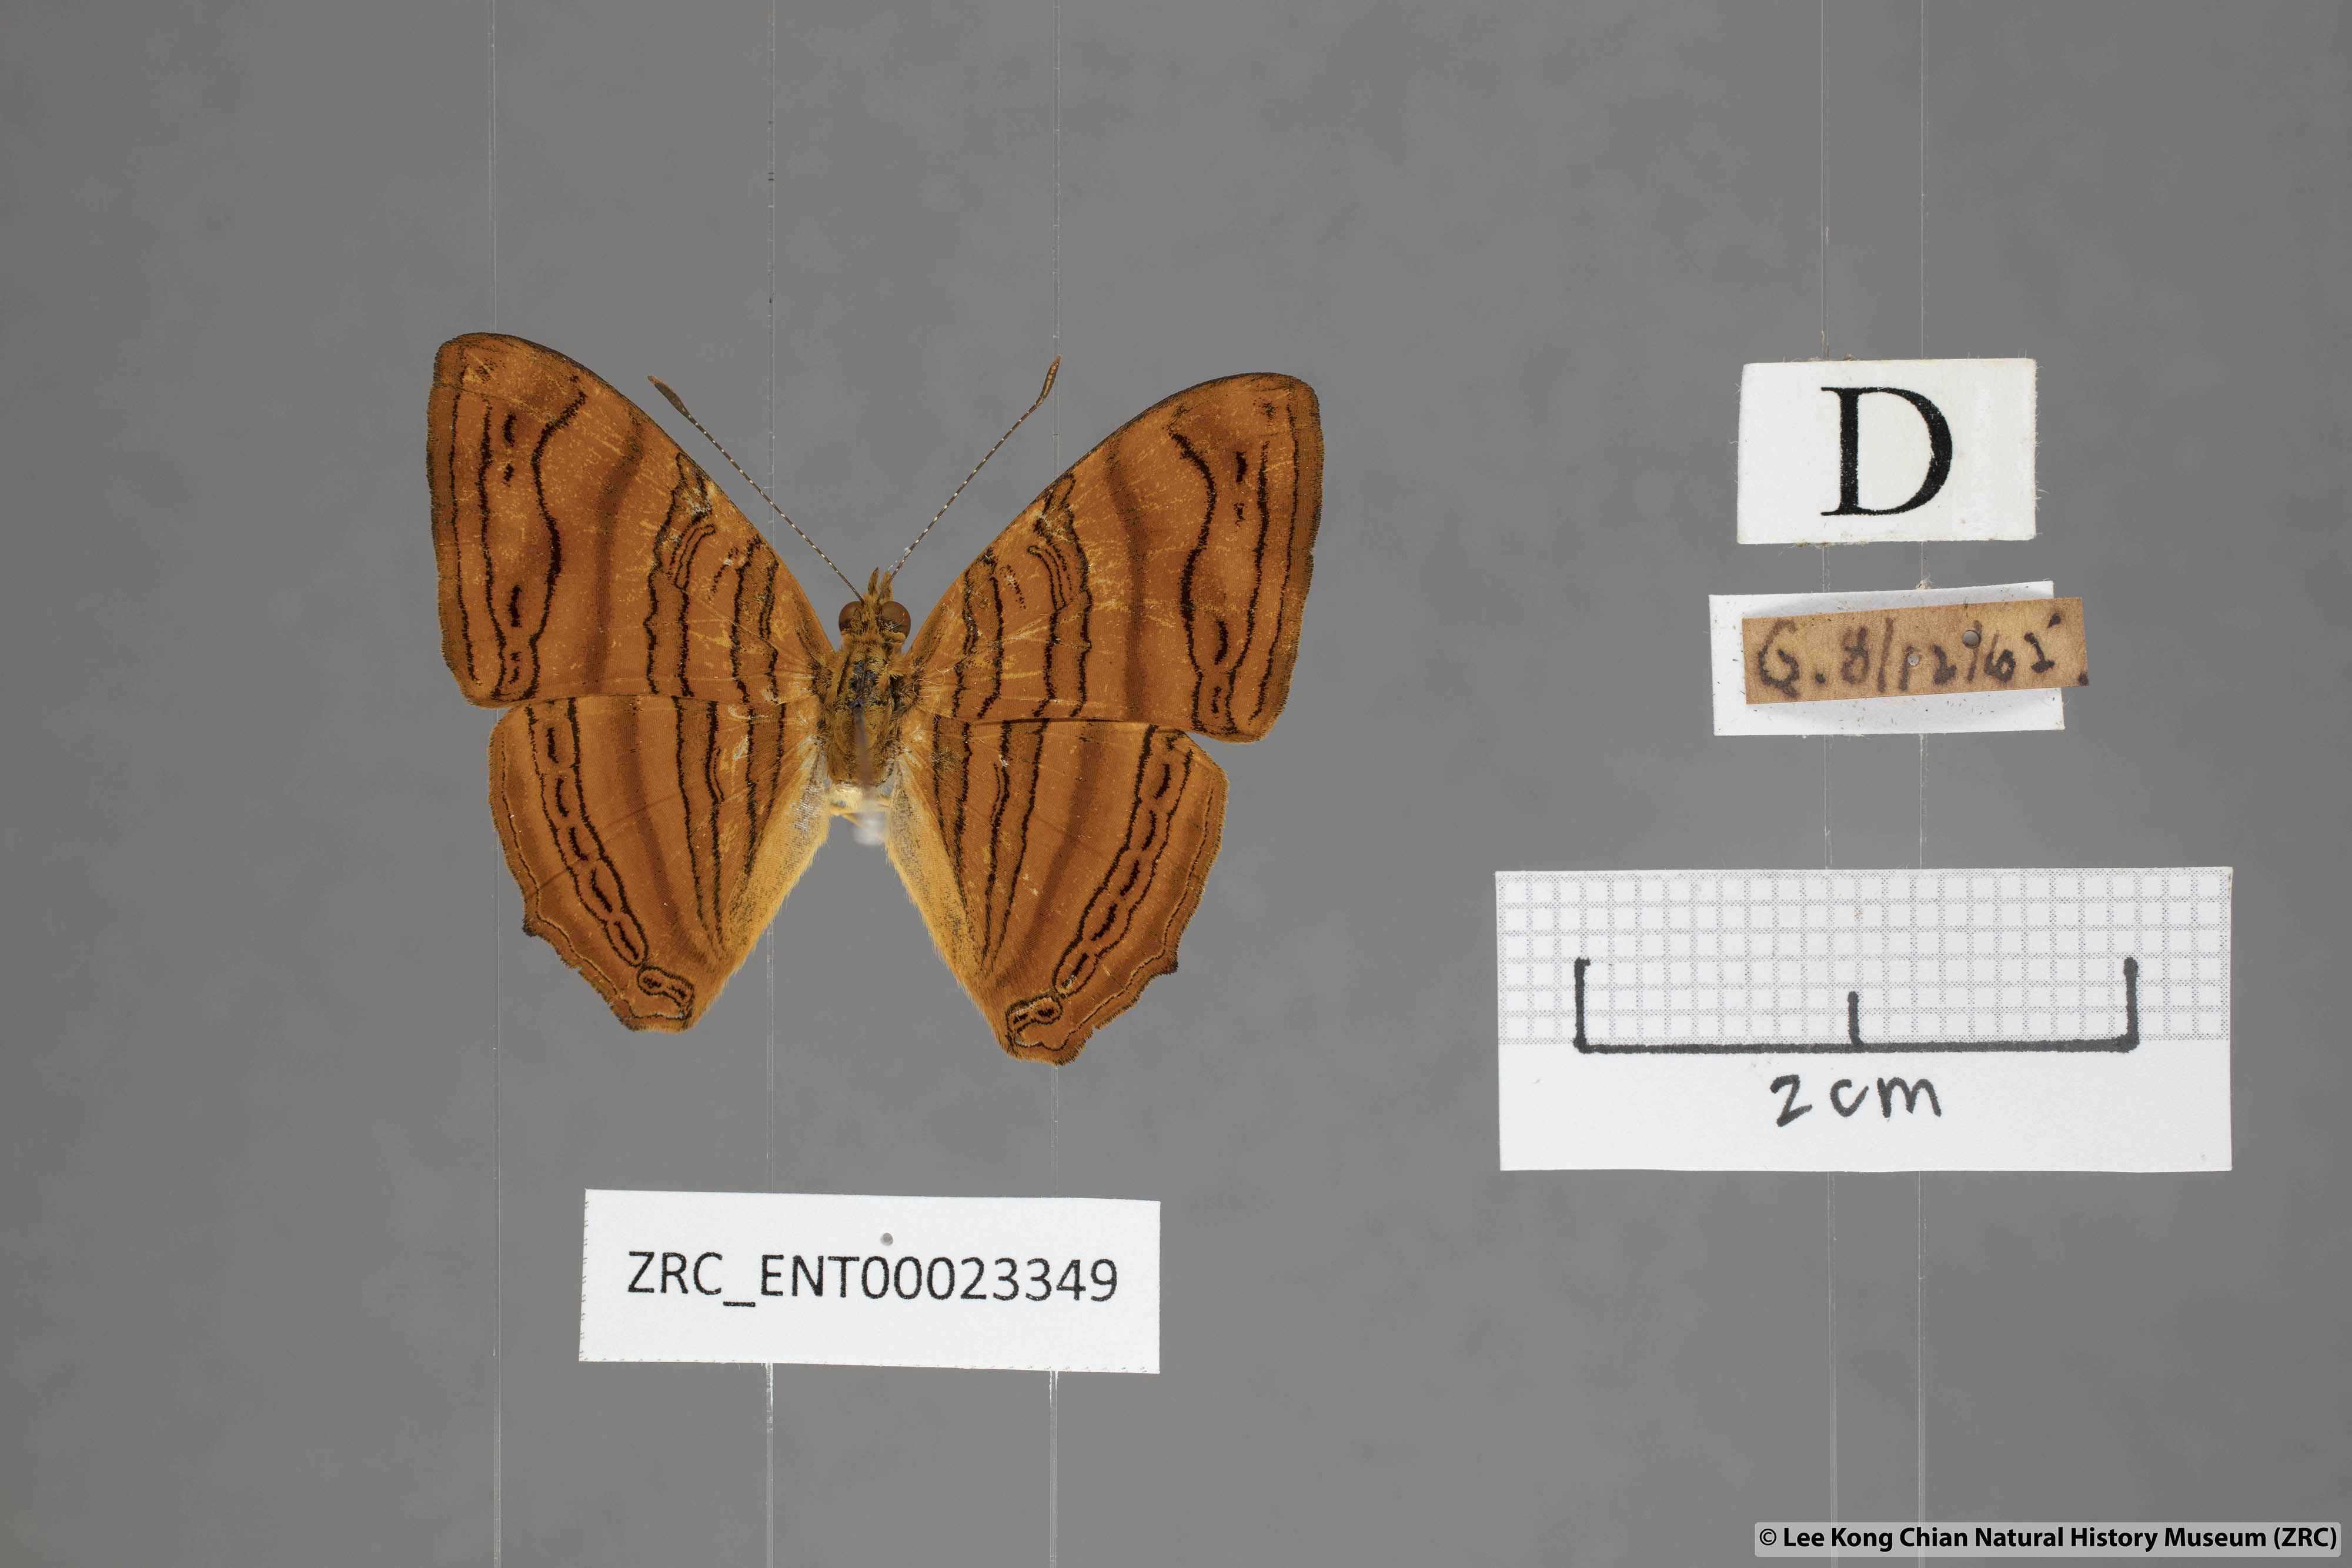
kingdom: Animalia
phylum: Arthropoda
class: Insecta
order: Lepidoptera
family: Nymphalidae
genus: Chersonesia
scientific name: Chersonesia intermedia
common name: Intermediate maplet
